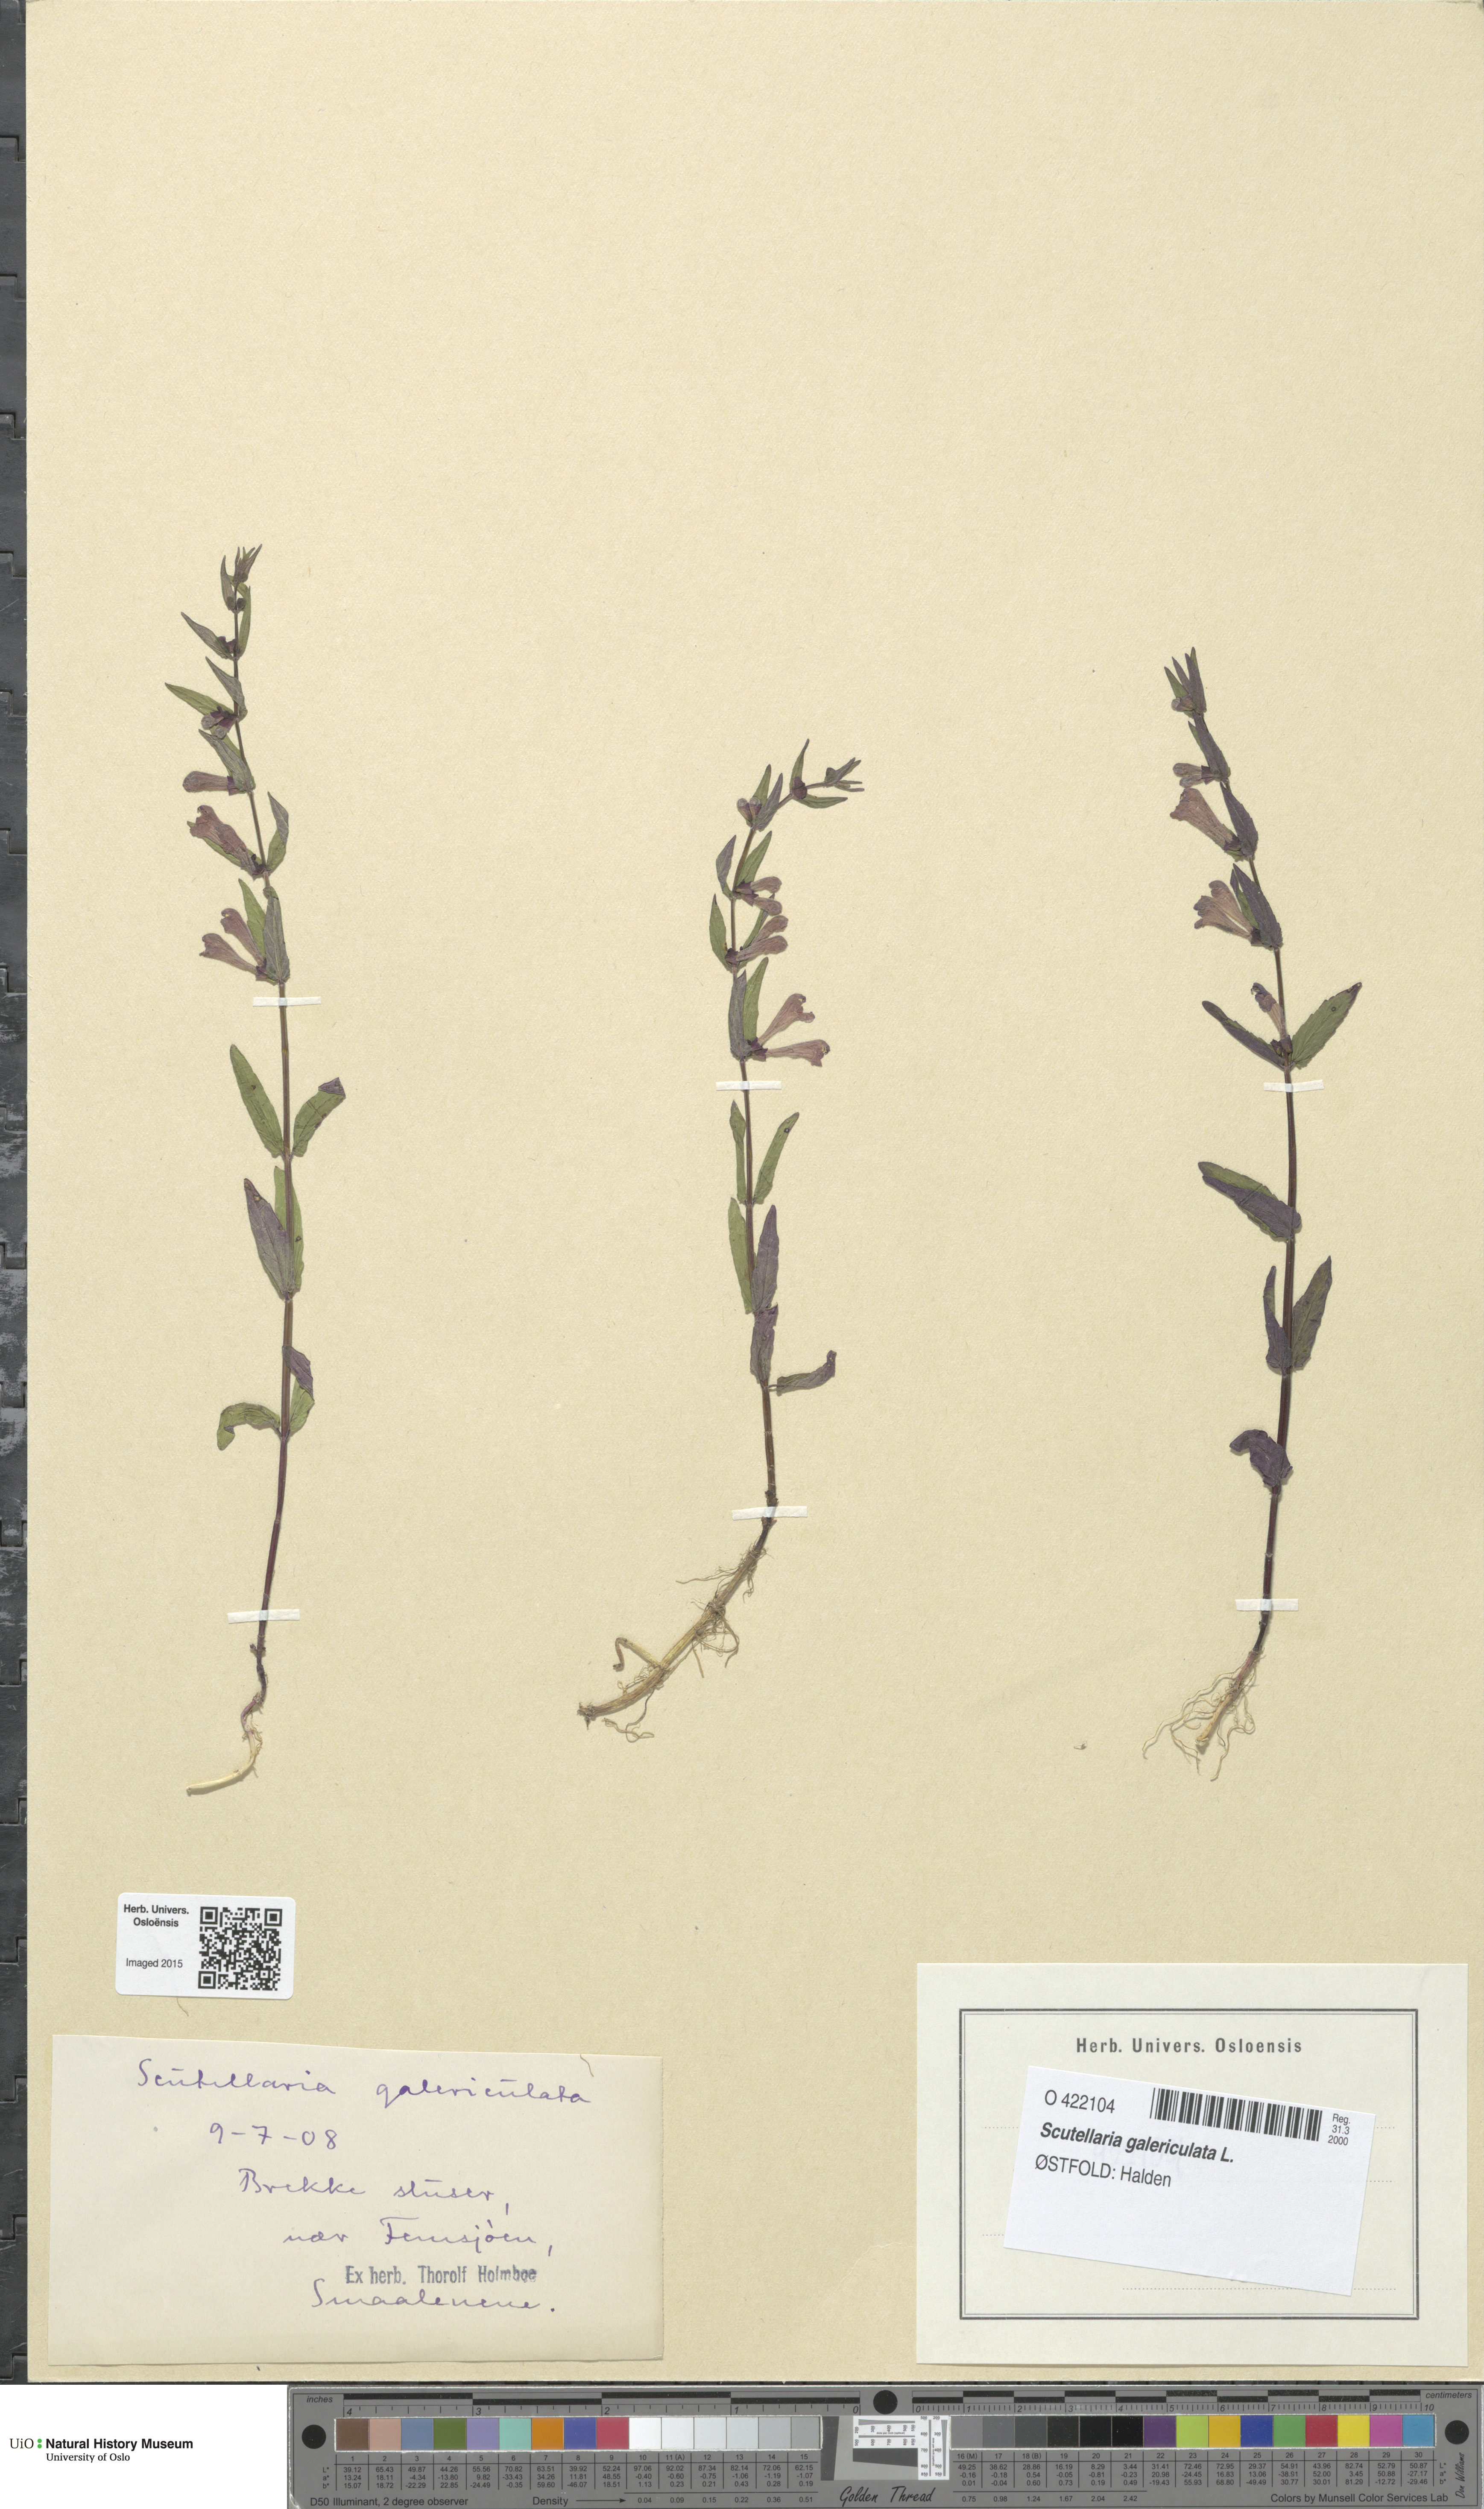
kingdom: Plantae
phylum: Tracheophyta
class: Magnoliopsida
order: Lamiales
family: Lamiaceae
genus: Scutellaria
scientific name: Scutellaria galericulata
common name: Skullcap
